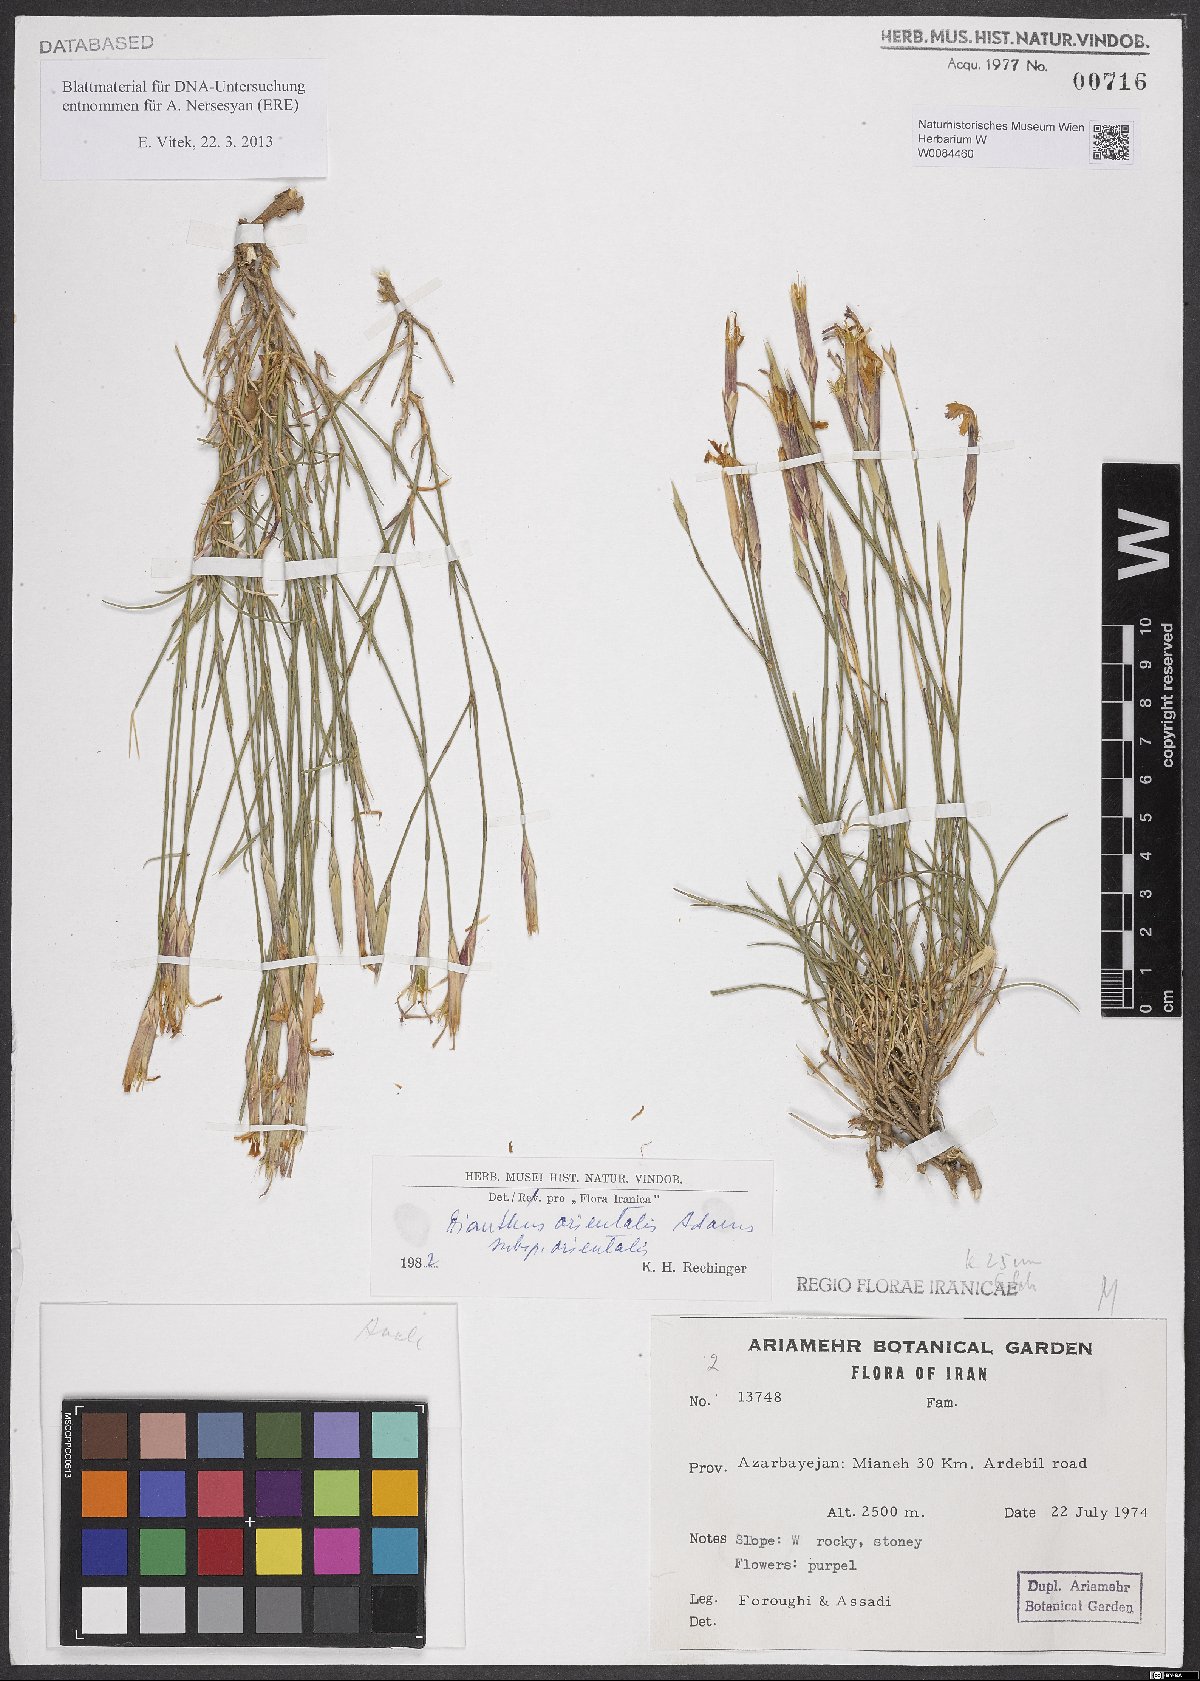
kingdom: Plantae
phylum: Tracheophyta
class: Magnoliopsida
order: Caryophyllales
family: Caryophyllaceae
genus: Dianthus
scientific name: Dianthus orientalis
